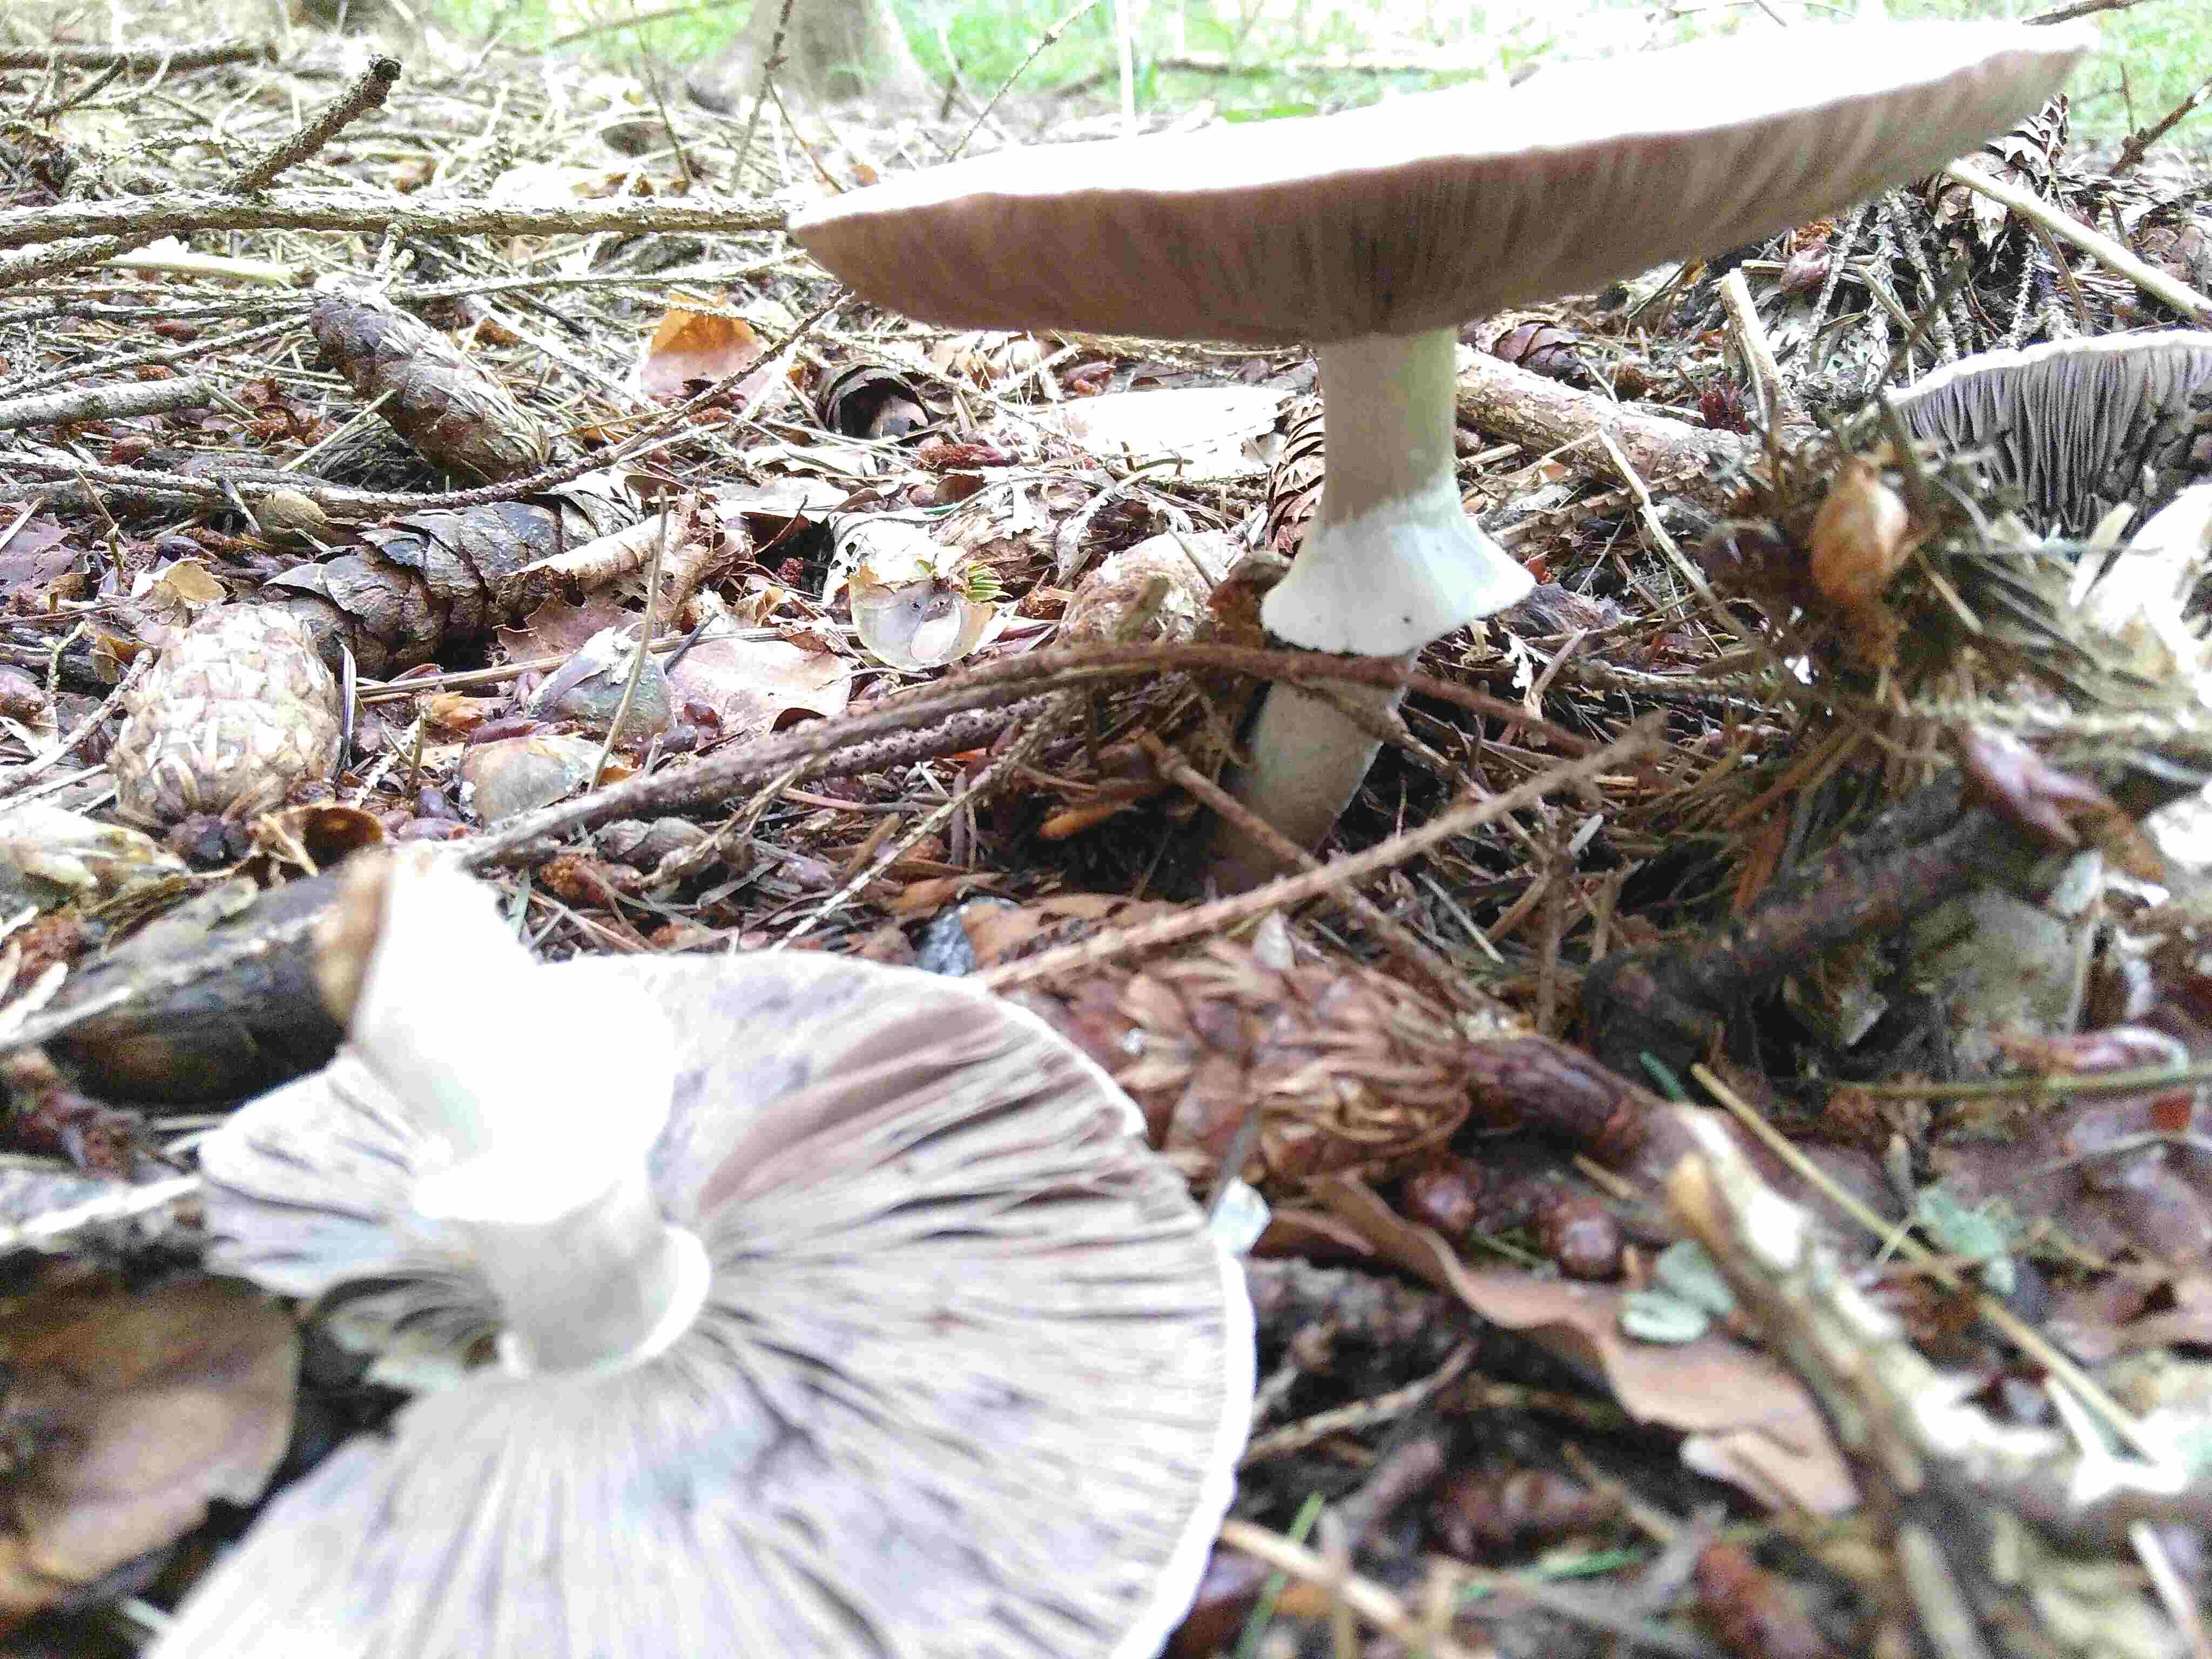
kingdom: Fungi
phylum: Basidiomycota
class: Agaricomycetes
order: Agaricales
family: Agaricaceae
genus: Agaricus
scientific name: Agaricus
